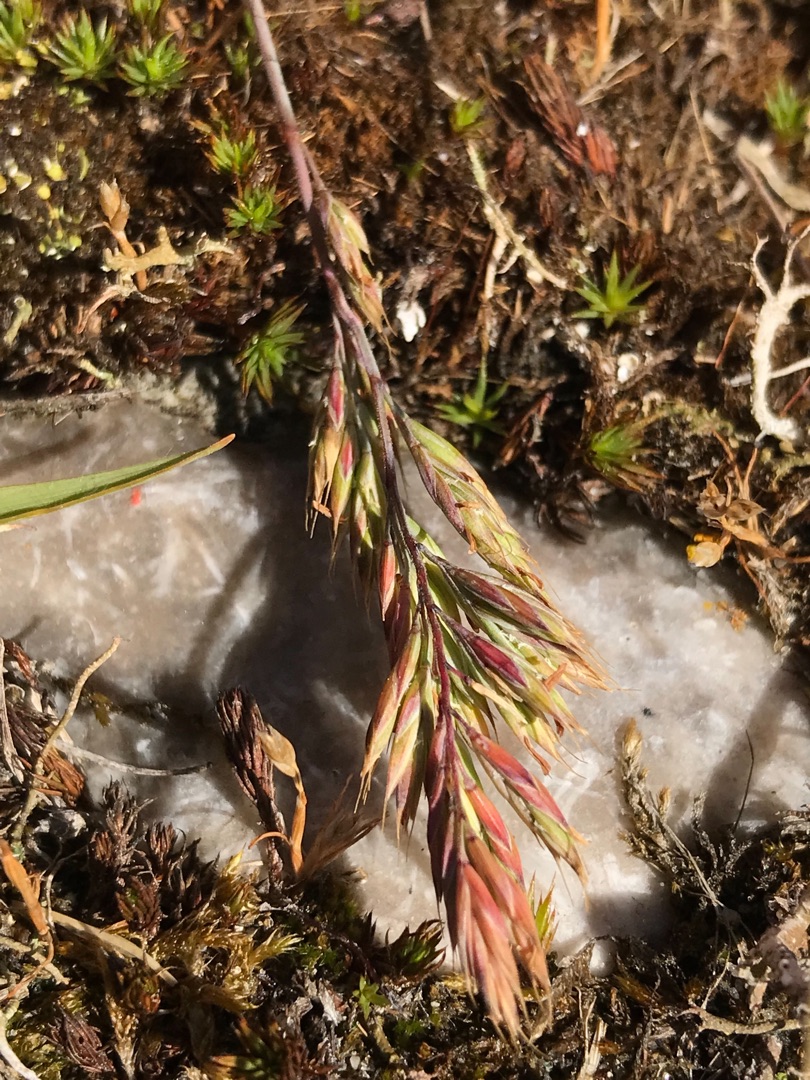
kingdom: Plantae
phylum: Tracheophyta
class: Liliopsida
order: Poales
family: Poaceae
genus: Festuca
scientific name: Festuca beckeri
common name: Baltisk svingel
